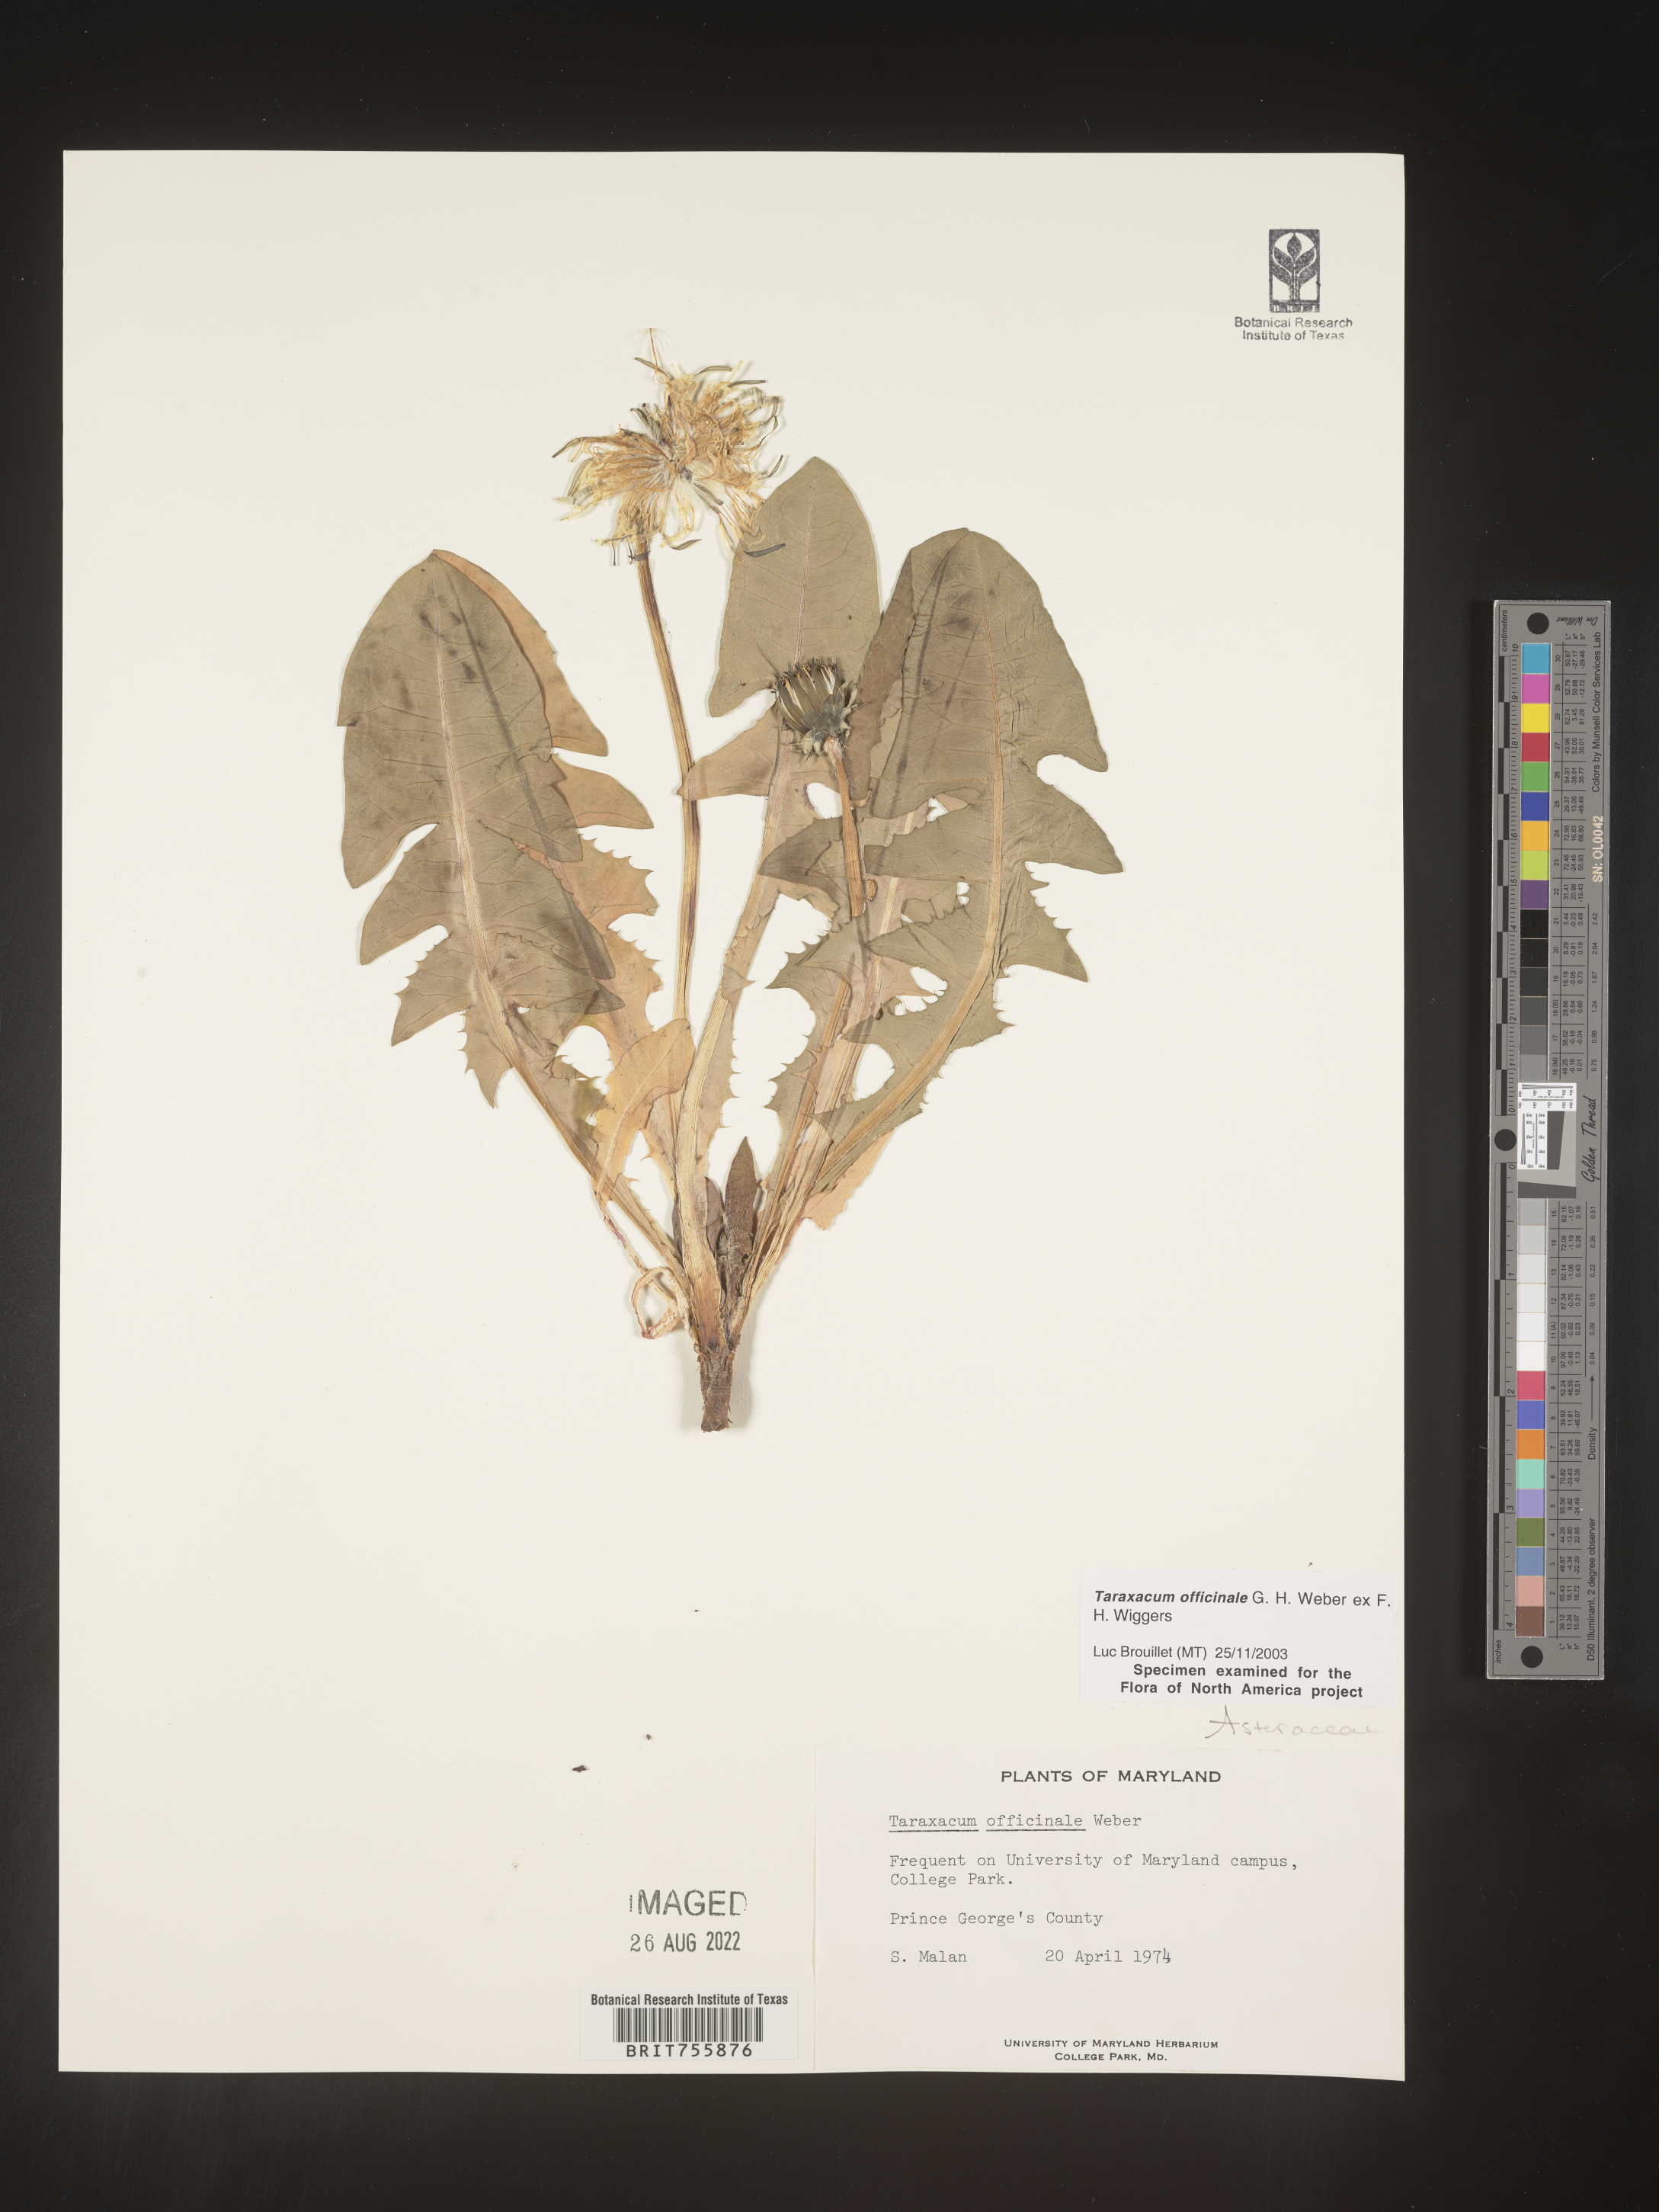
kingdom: Plantae
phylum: Tracheophyta
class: Magnoliopsida
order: Asterales
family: Asteraceae
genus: Taraxacum
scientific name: Taraxacum officinale
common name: Common dandelion
